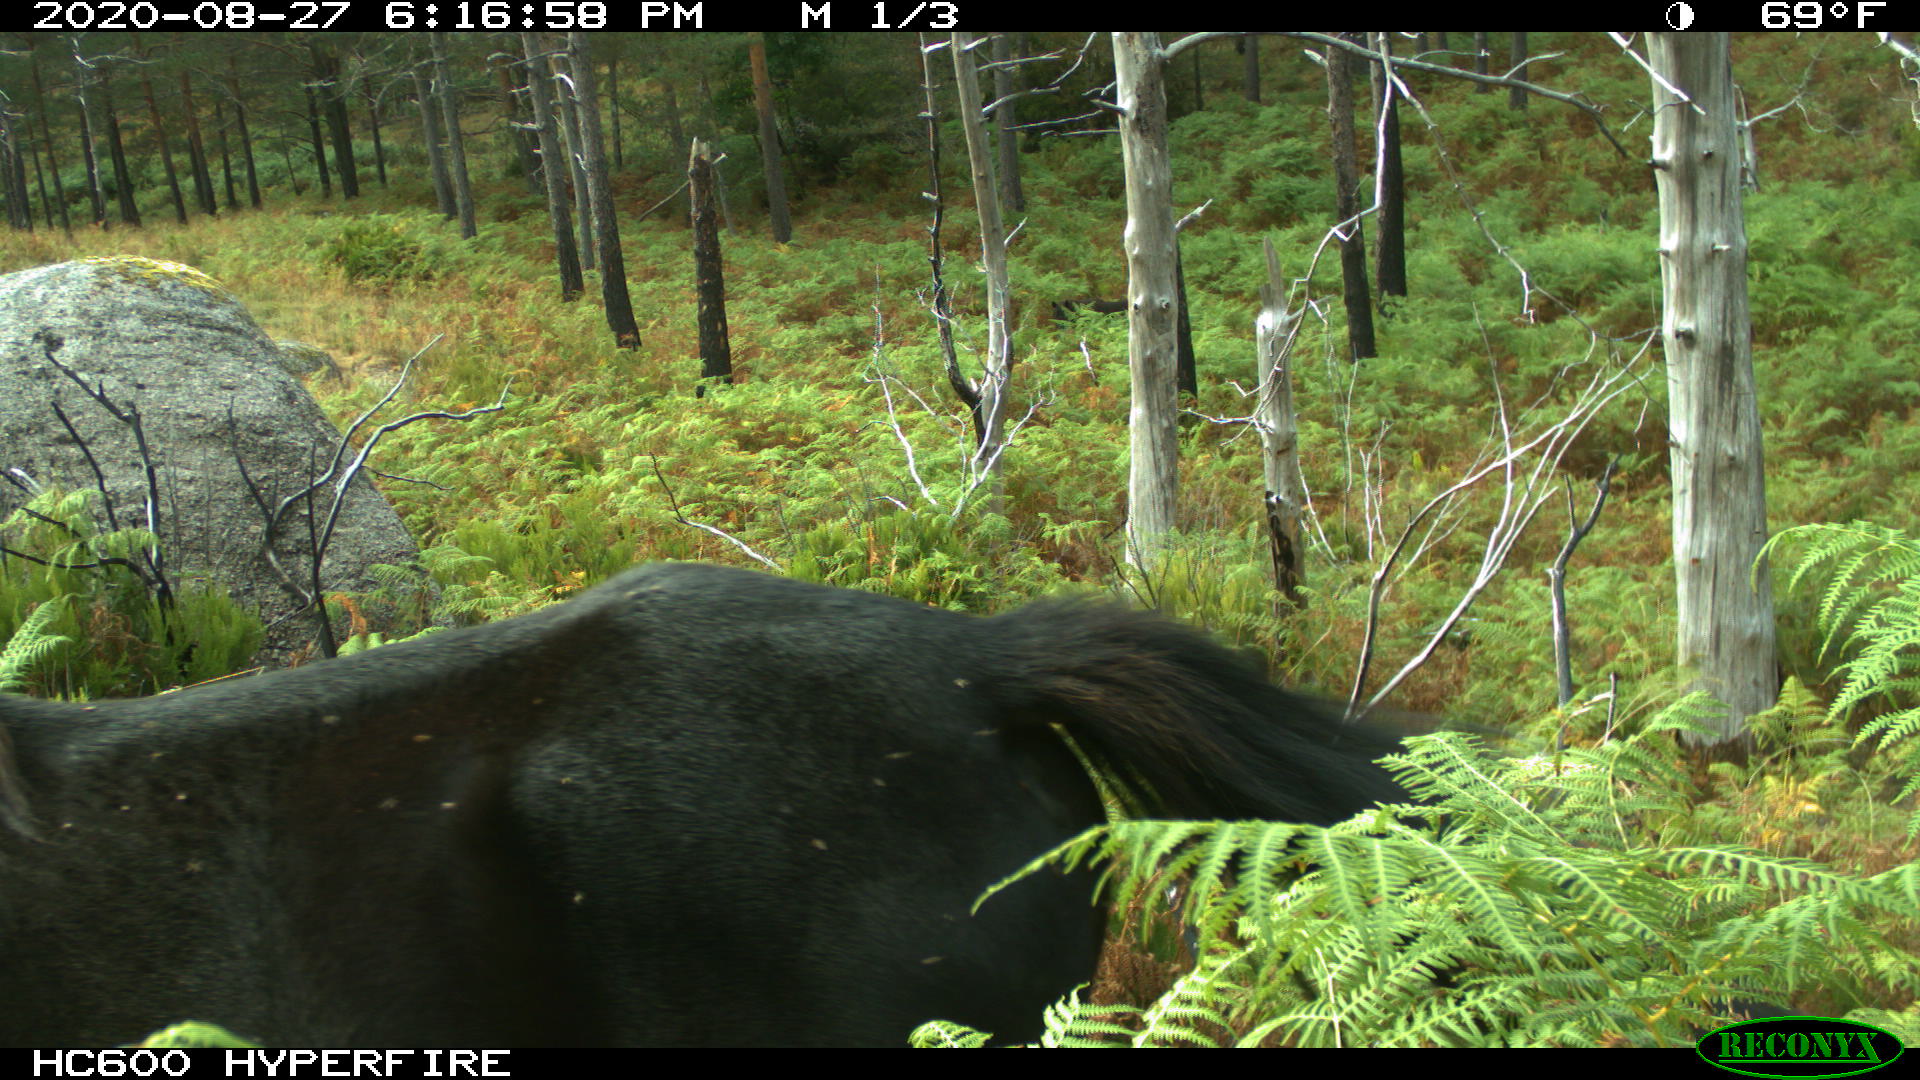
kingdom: Animalia
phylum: Chordata
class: Mammalia
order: Perissodactyla
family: Equidae
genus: Equus
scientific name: Equus caballus
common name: Horse
